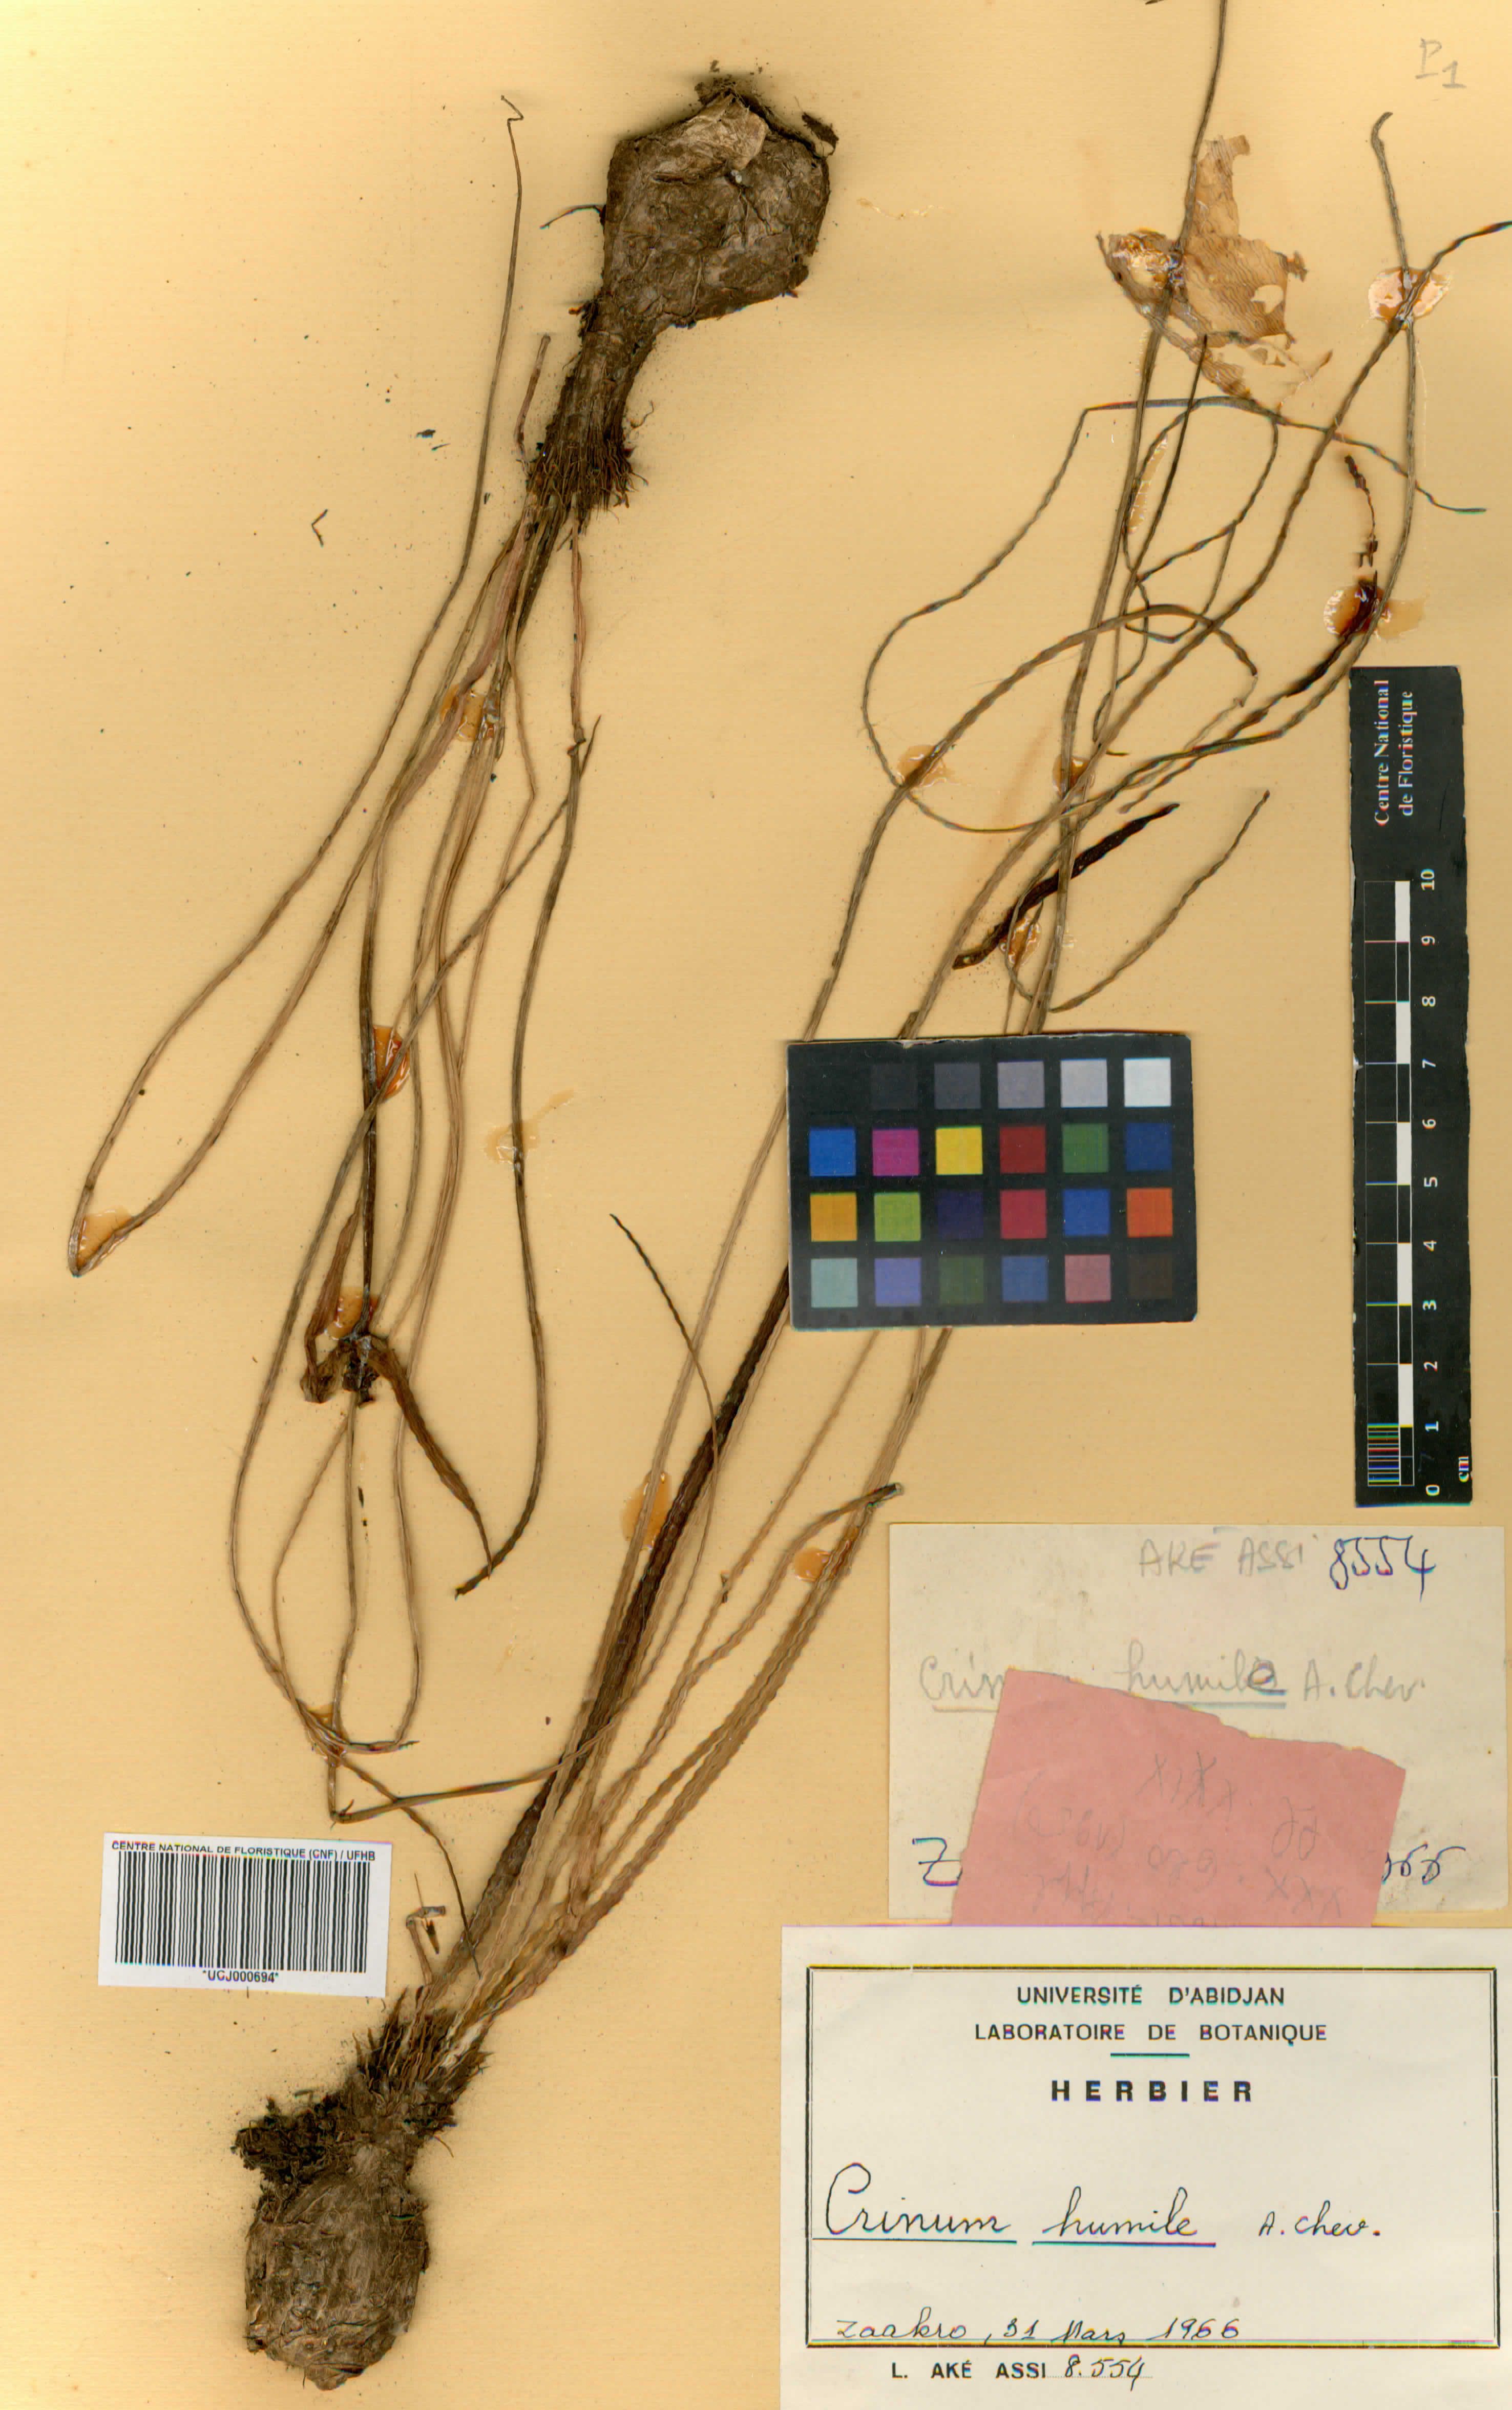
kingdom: Plantae
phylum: Tracheophyta
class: Liliopsida
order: Asparagales
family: Amaryllidaceae
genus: Crinum
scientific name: Crinum nubicum
